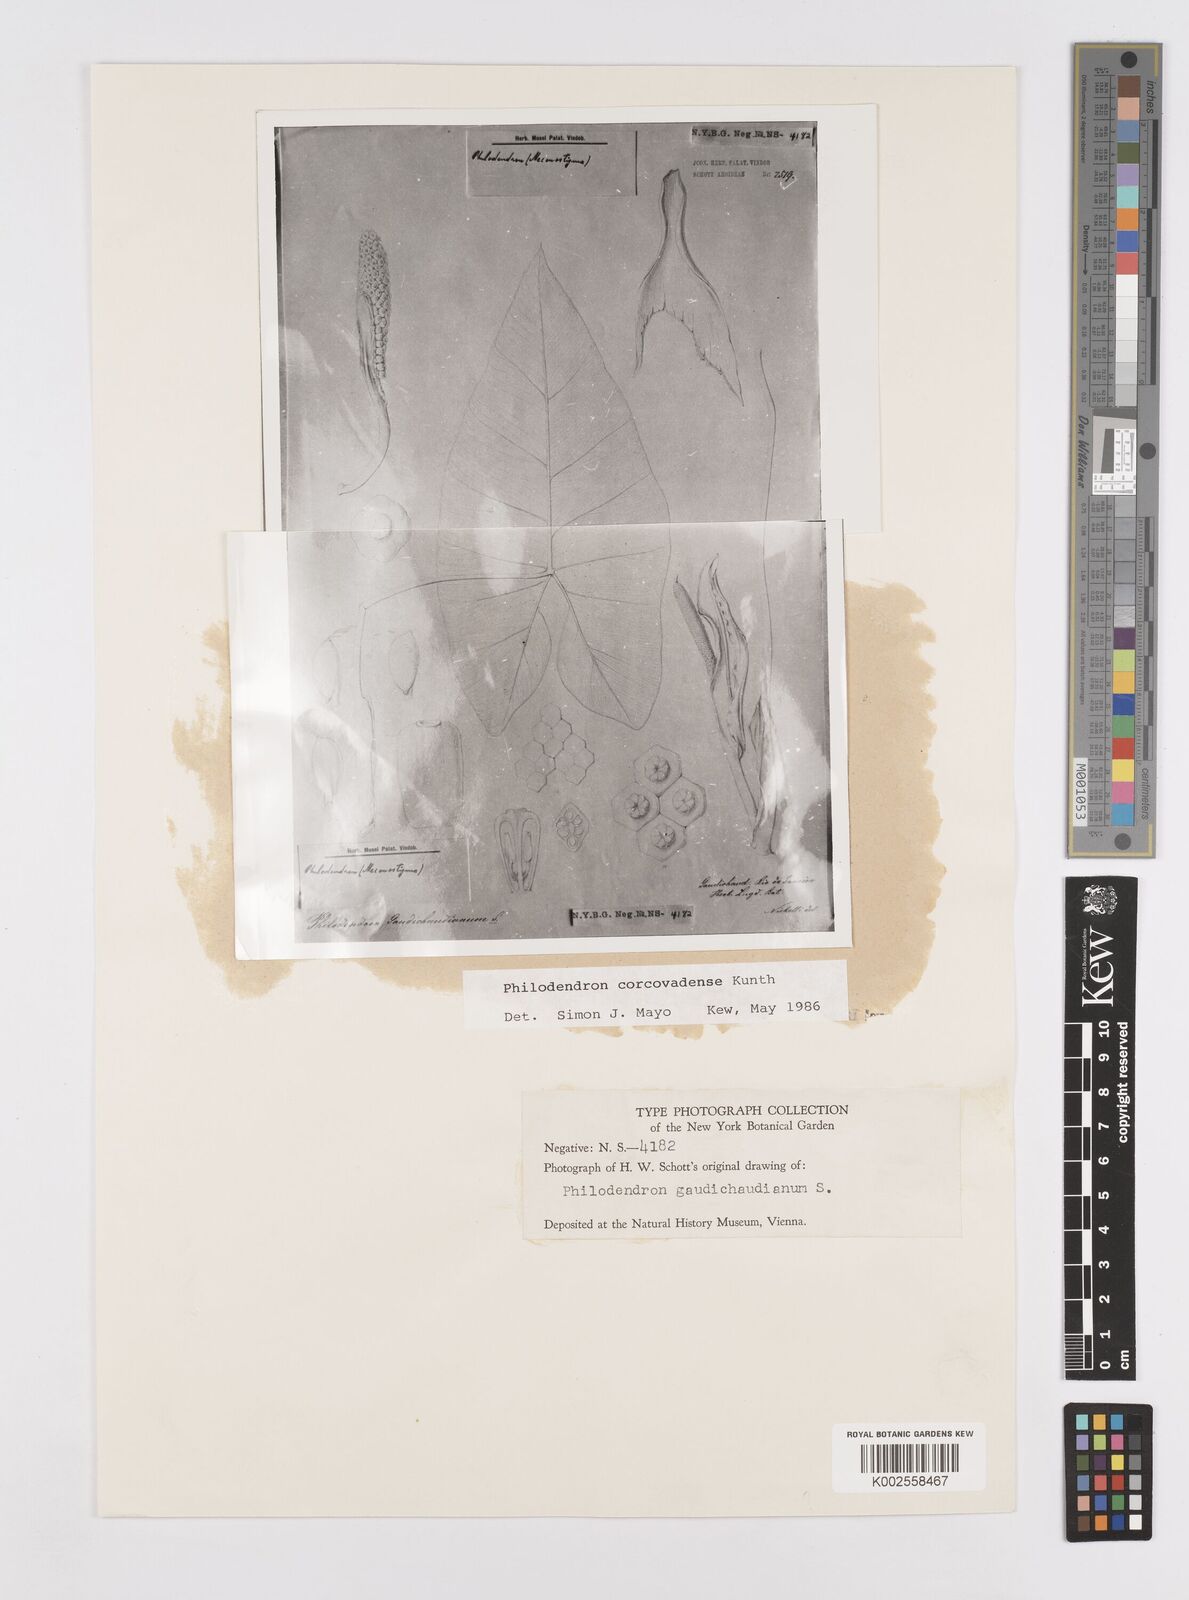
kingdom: Plantae
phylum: Tracheophyta
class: Liliopsida
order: Alismatales
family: Araceae
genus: Thaumatophyllum
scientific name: Thaumatophyllum corcovadense
